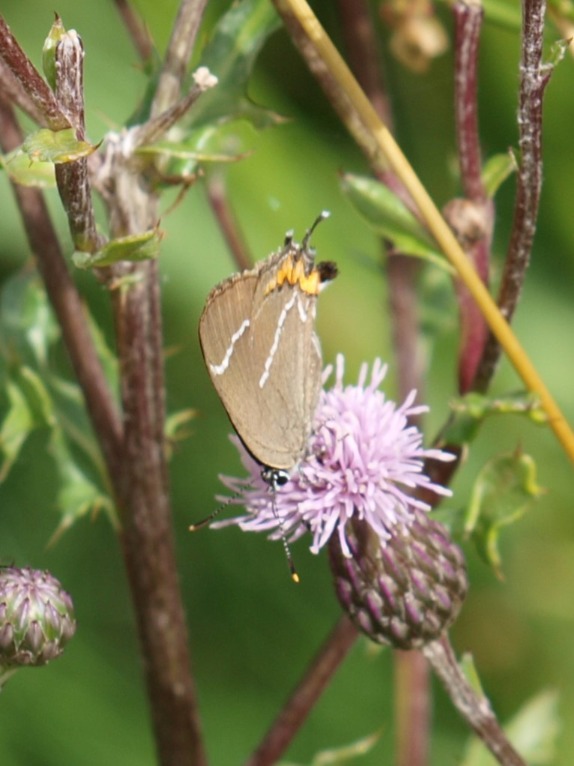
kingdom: Animalia
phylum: Arthropoda
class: Insecta
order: Lepidoptera
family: Lycaenidae
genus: Satyrium
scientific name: Satyrium w-album
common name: Det hvide W
